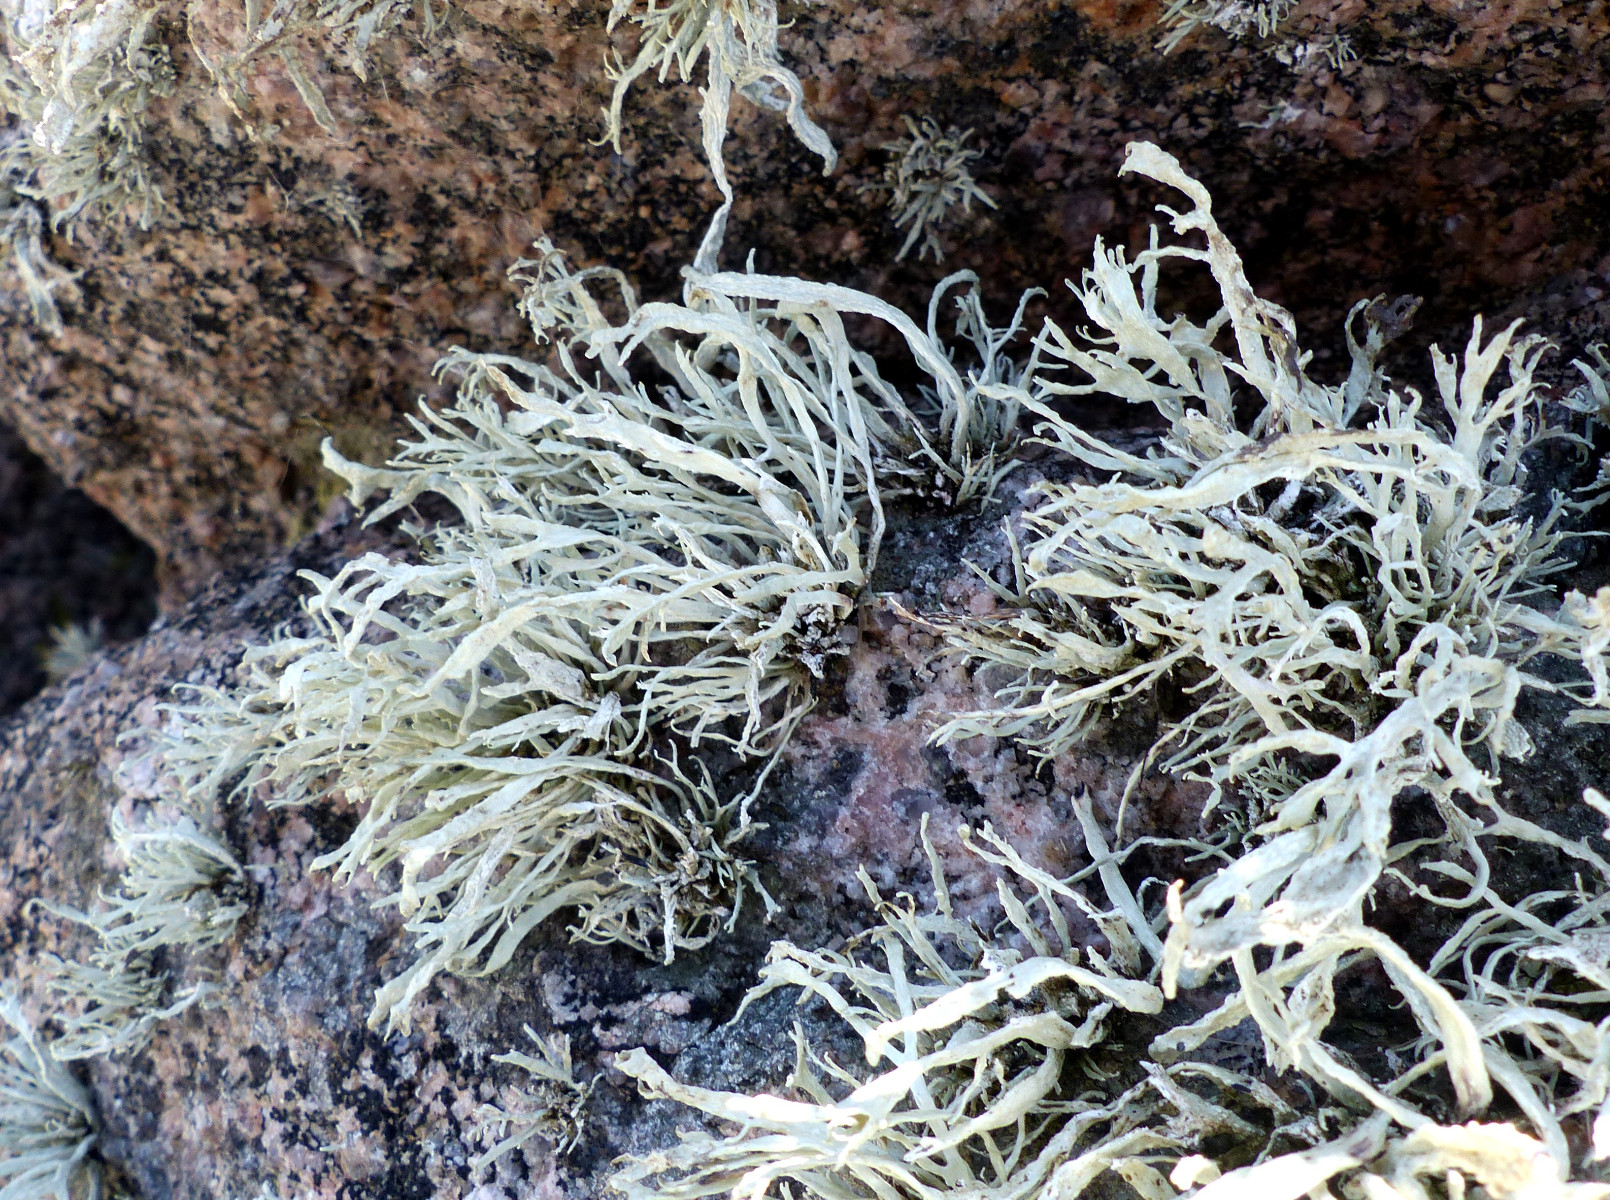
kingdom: Fungi
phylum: Ascomycota
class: Lecanoromycetes
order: Lecanorales
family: Ramalinaceae
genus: Ramalina
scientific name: Ramalina siliquosa
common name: klippe-grenlav
